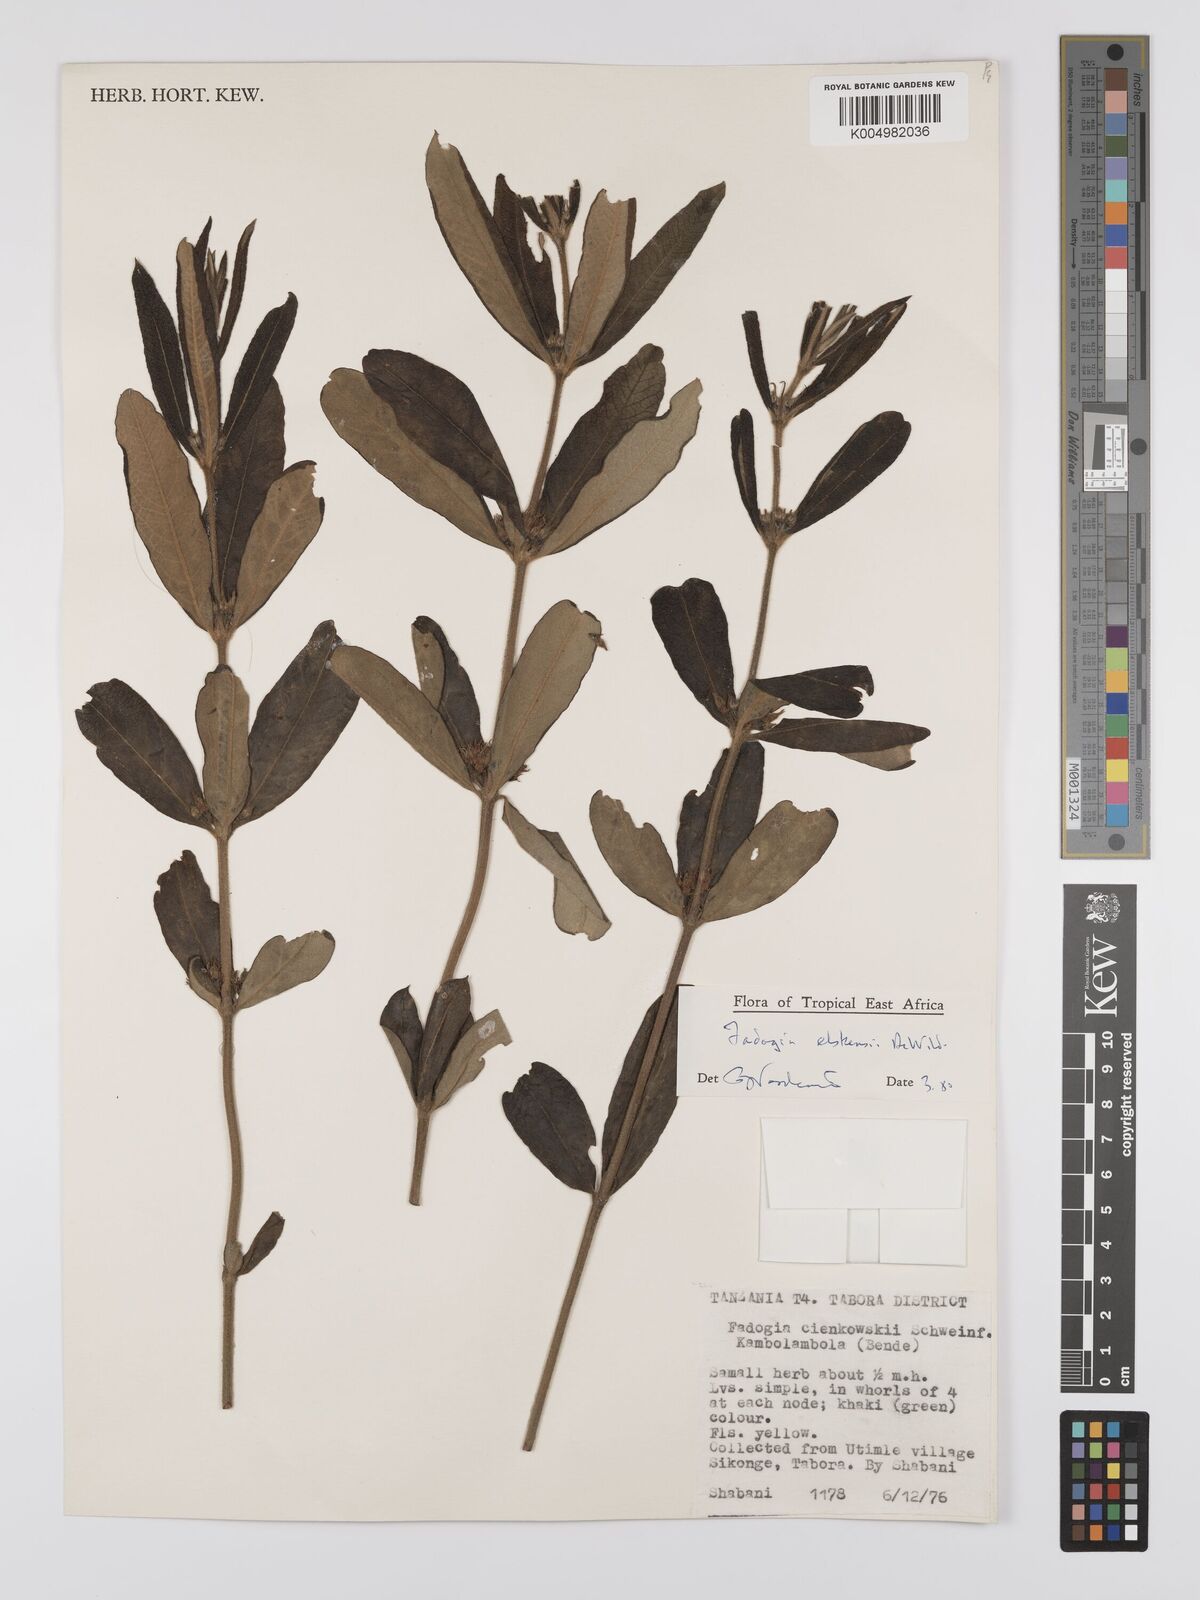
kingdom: Plantae
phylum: Tracheophyta
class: Magnoliopsida
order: Gentianales
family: Rubiaceae
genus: Fadogia
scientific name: Fadogia elskensii
